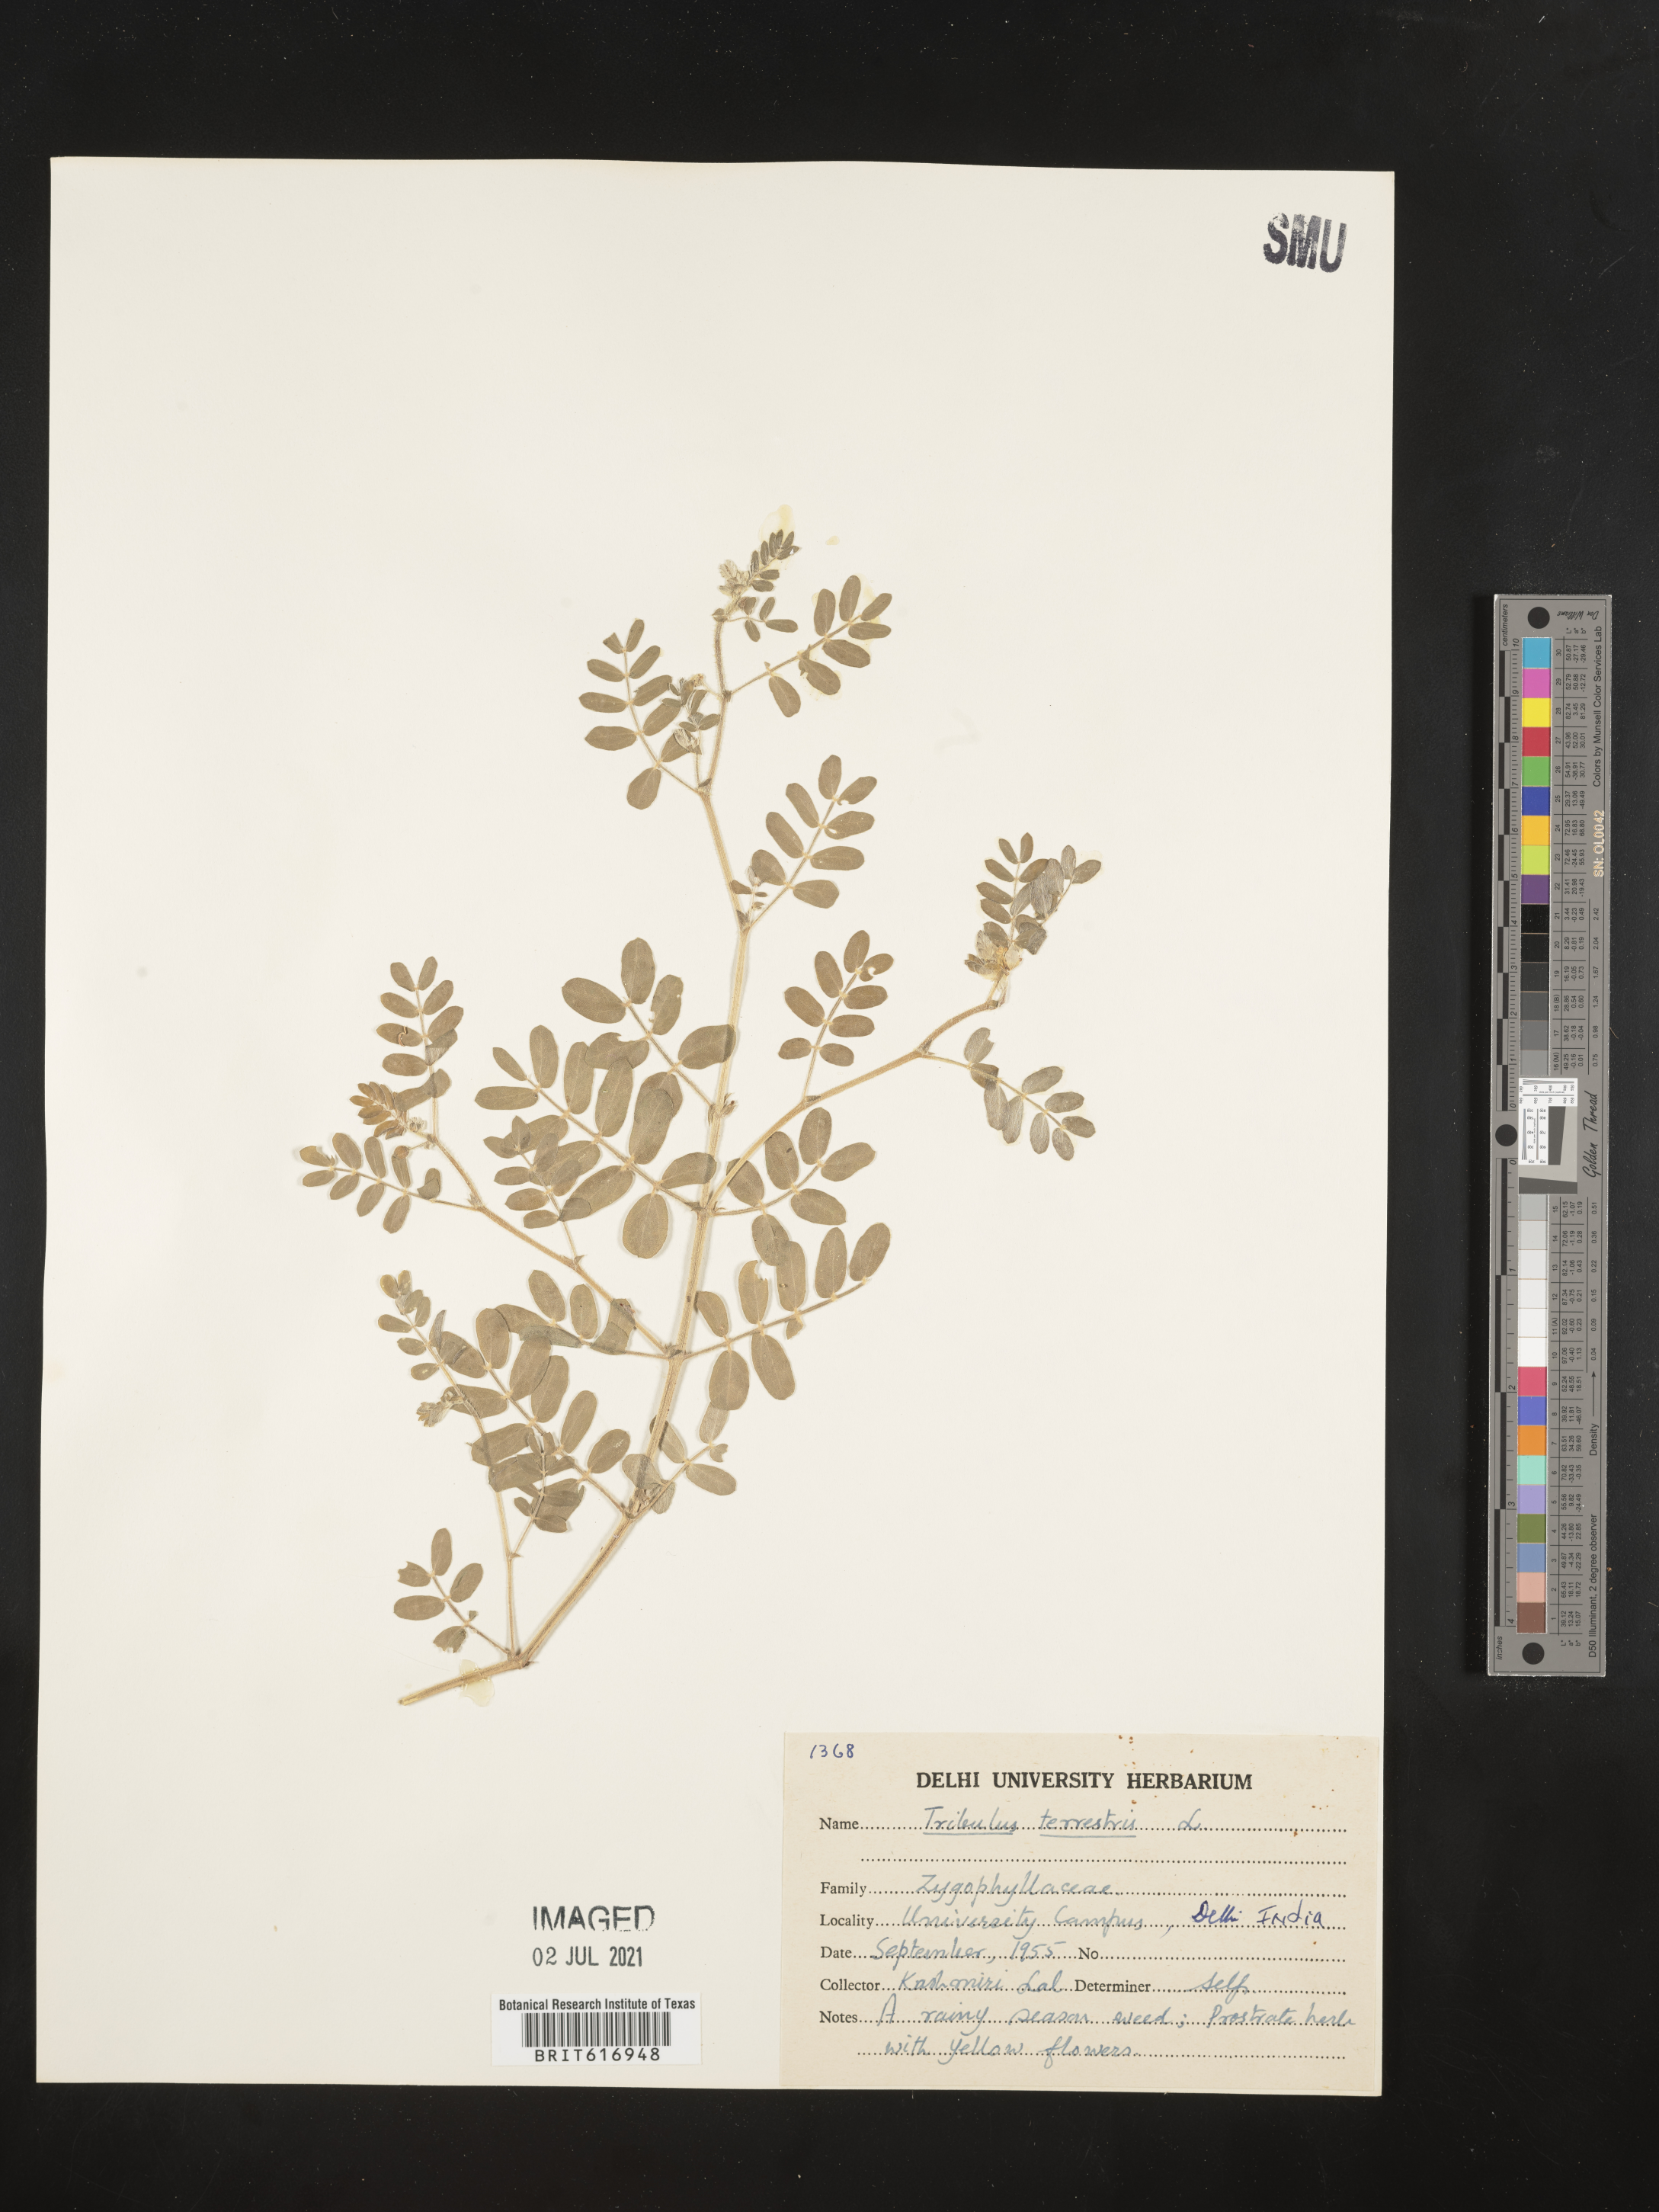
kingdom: Plantae
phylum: Tracheophyta
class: Magnoliopsida
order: Zygophyllales
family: Zygophyllaceae
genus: Tribulus
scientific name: Tribulus terrestris
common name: Puncturevine
